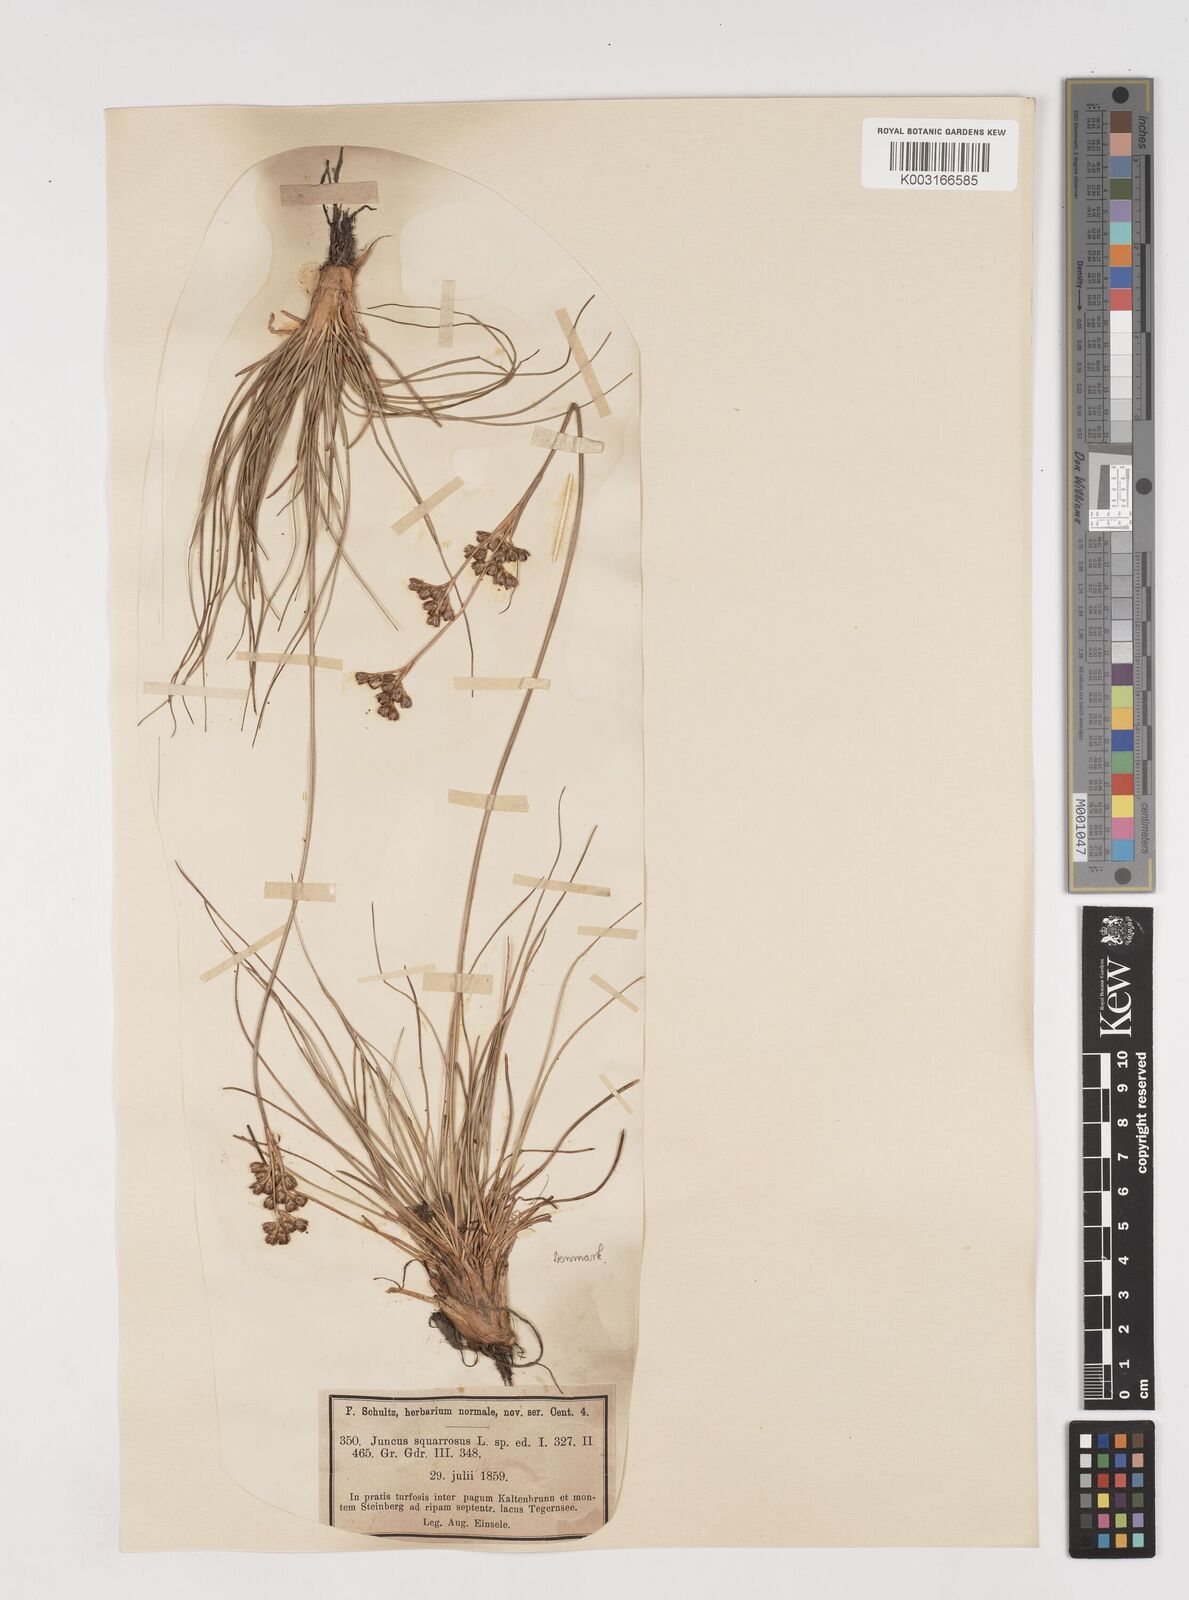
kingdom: Plantae
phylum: Tracheophyta
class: Liliopsida
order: Poales
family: Juncaceae
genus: Juncus
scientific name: Juncus squarrosus
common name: Heath rush
